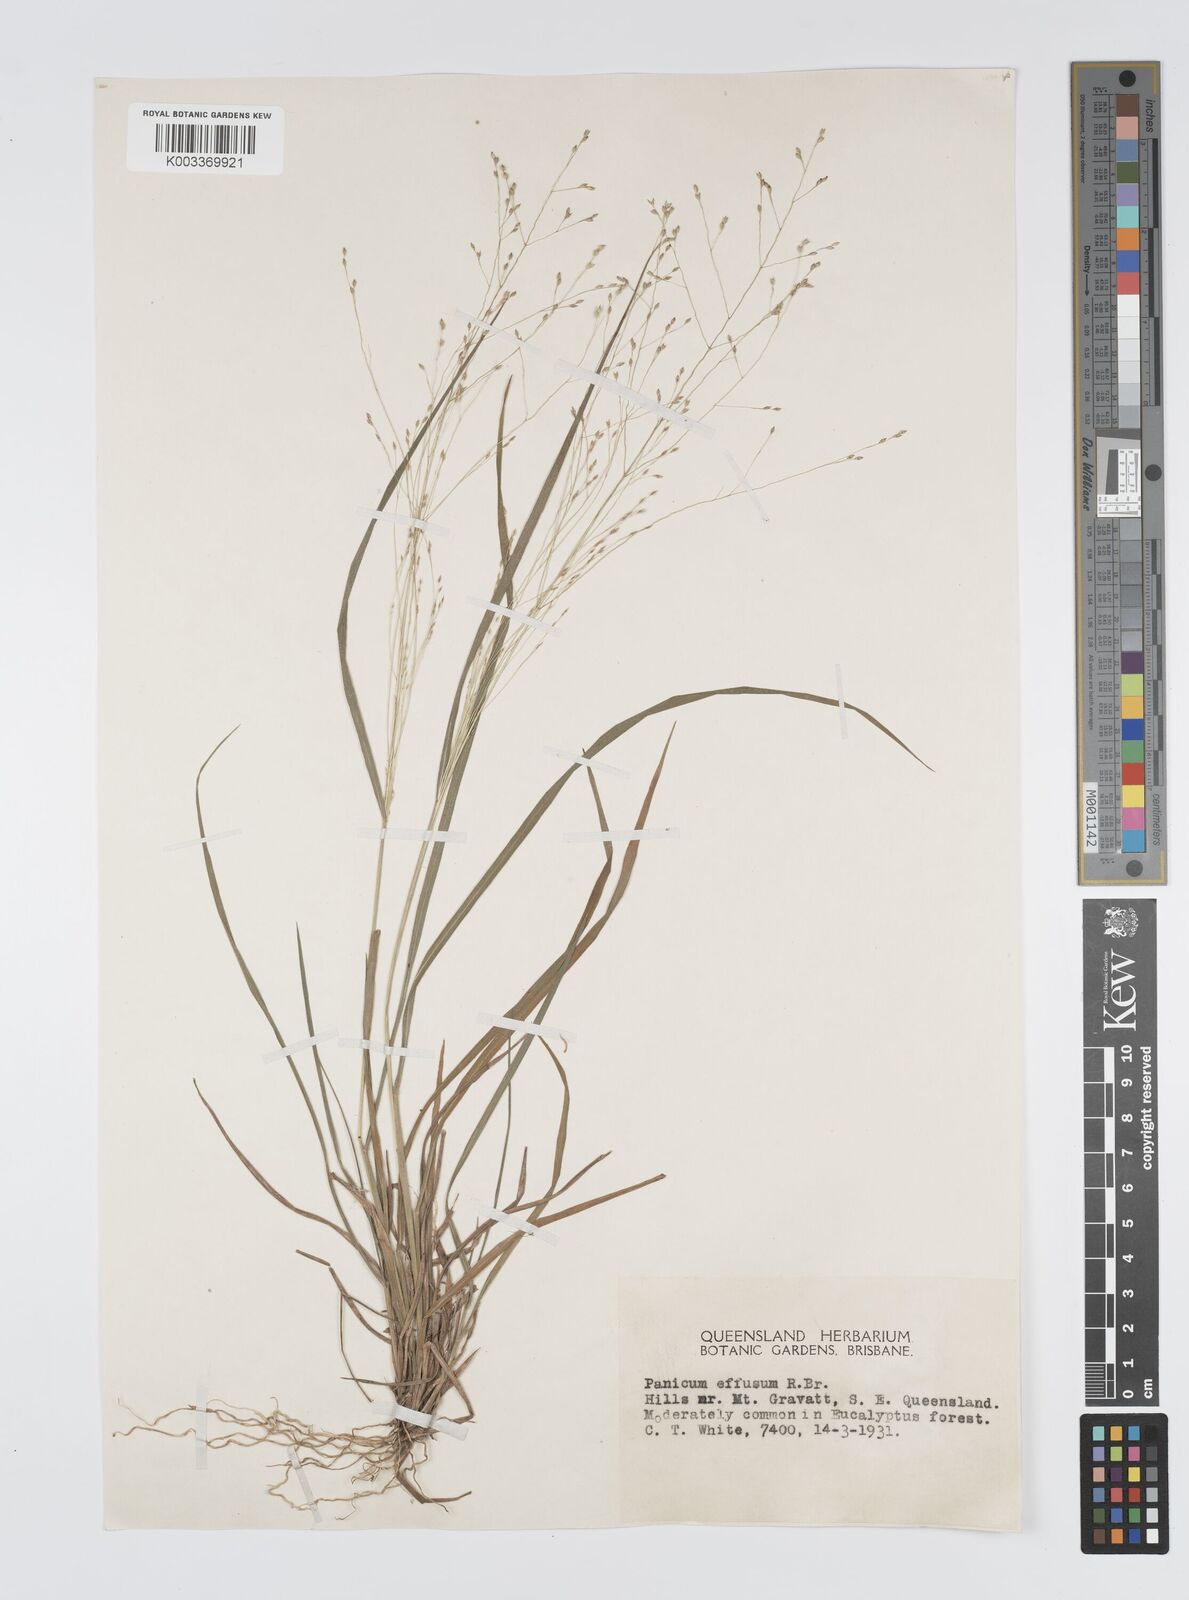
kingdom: Plantae
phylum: Tracheophyta
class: Liliopsida
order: Poales
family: Poaceae
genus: Panicum
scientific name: Panicum effusum
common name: Hairy panic grass
